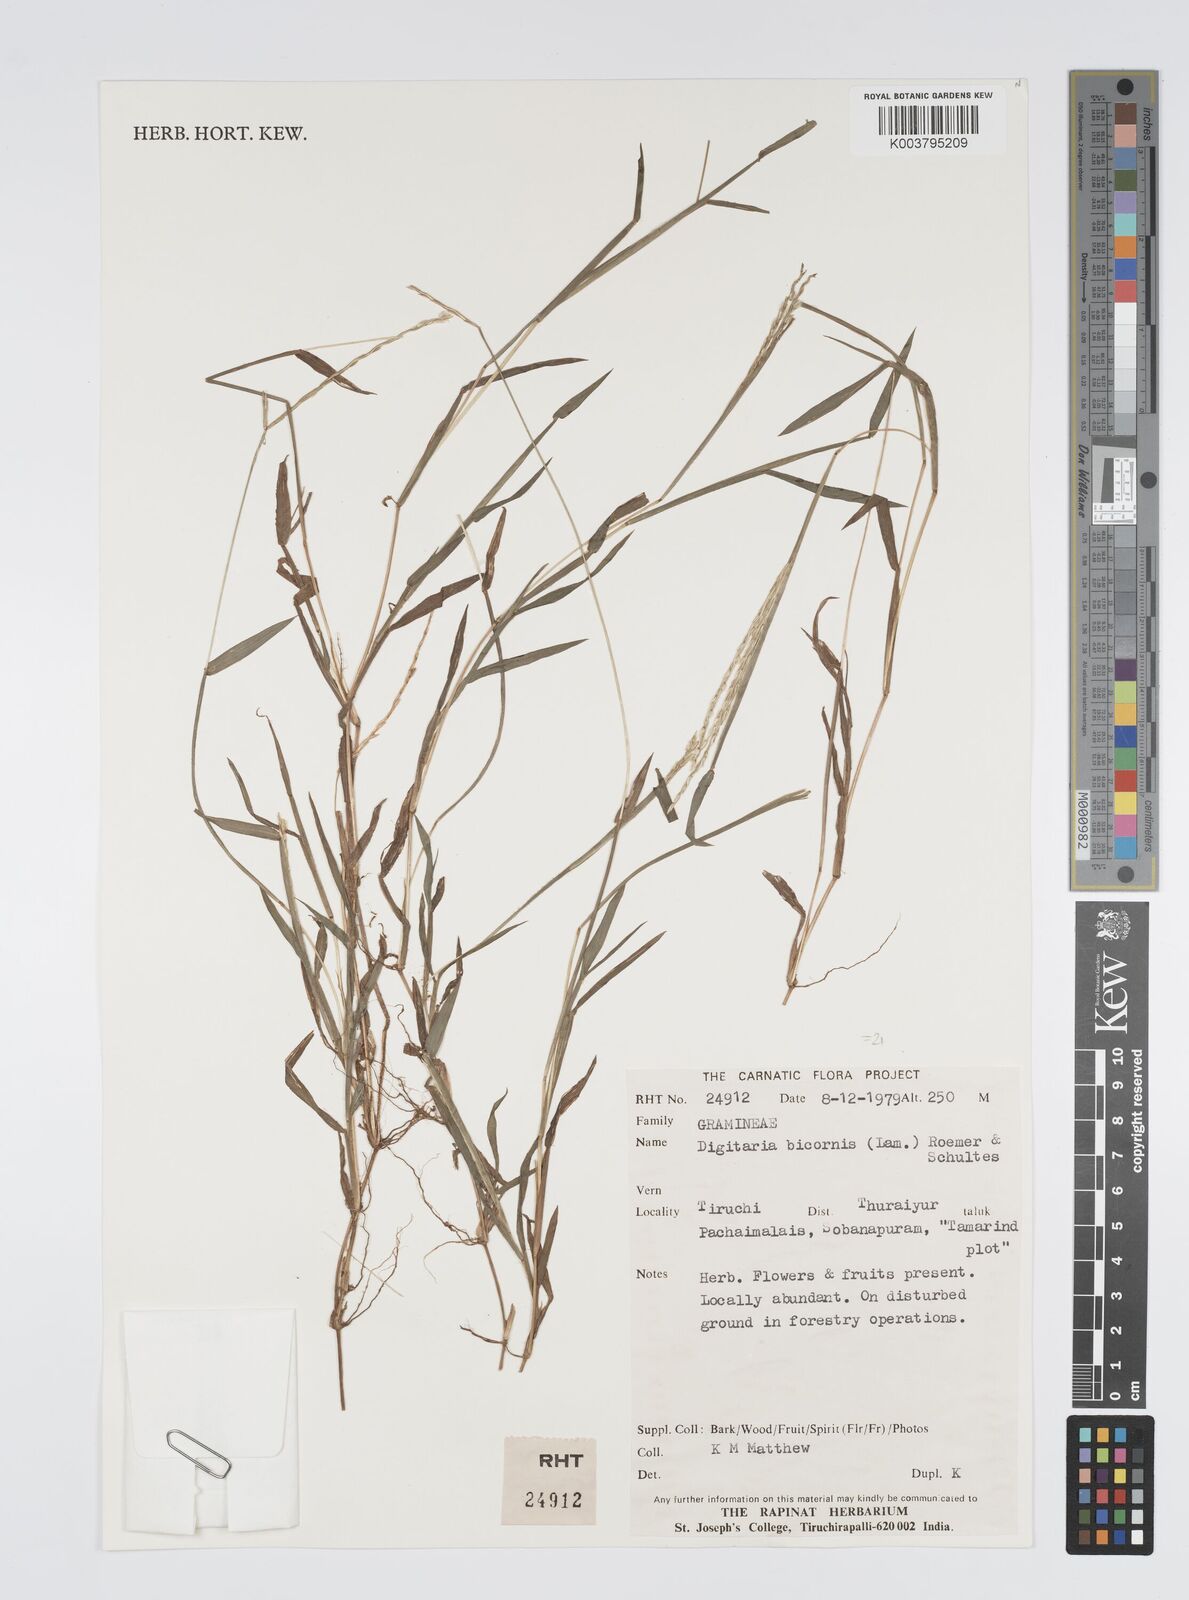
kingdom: Plantae
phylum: Tracheophyta
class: Liliopsida
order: Poales
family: Poaceae
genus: Digitaria
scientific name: Digitaria ciliaris
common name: Tropical finger-grass
